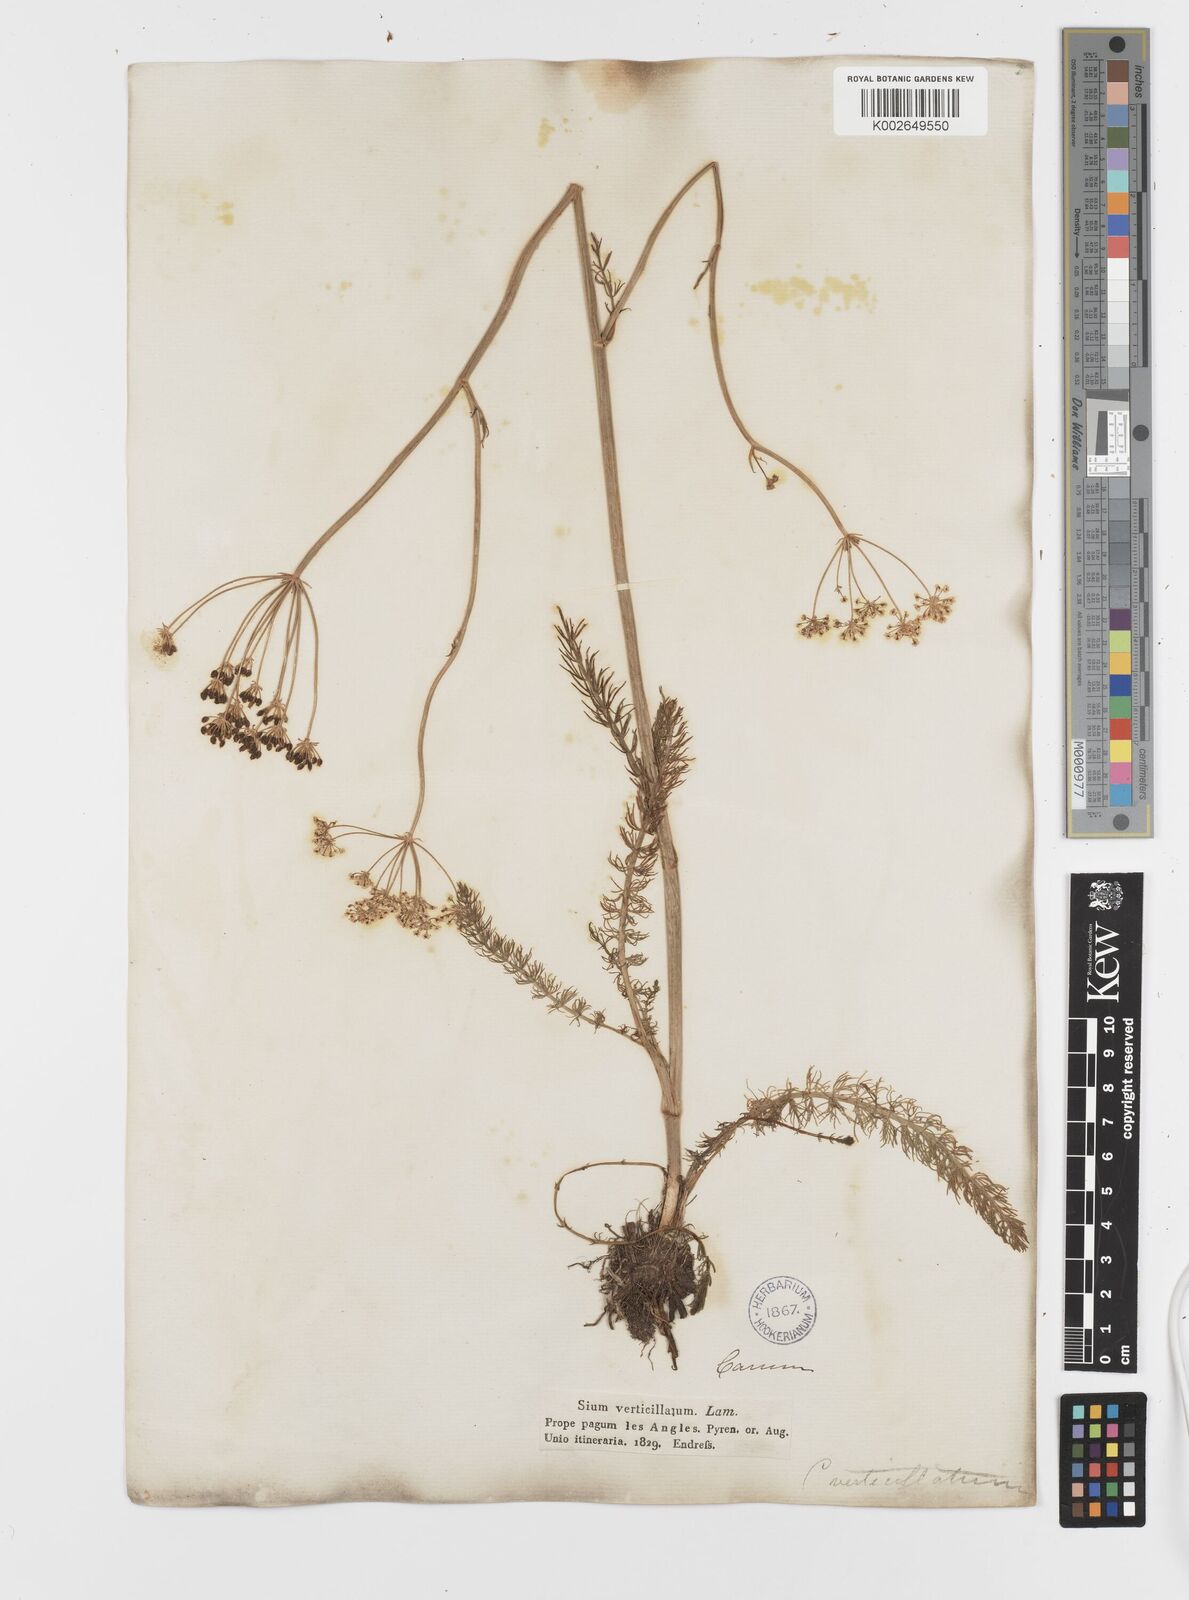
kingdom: Plantae
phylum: Tracheophyta
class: Magnoliopsida
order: Apiales
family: Apiaceae
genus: Trocdaris
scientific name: Trocdaris verticillatum
